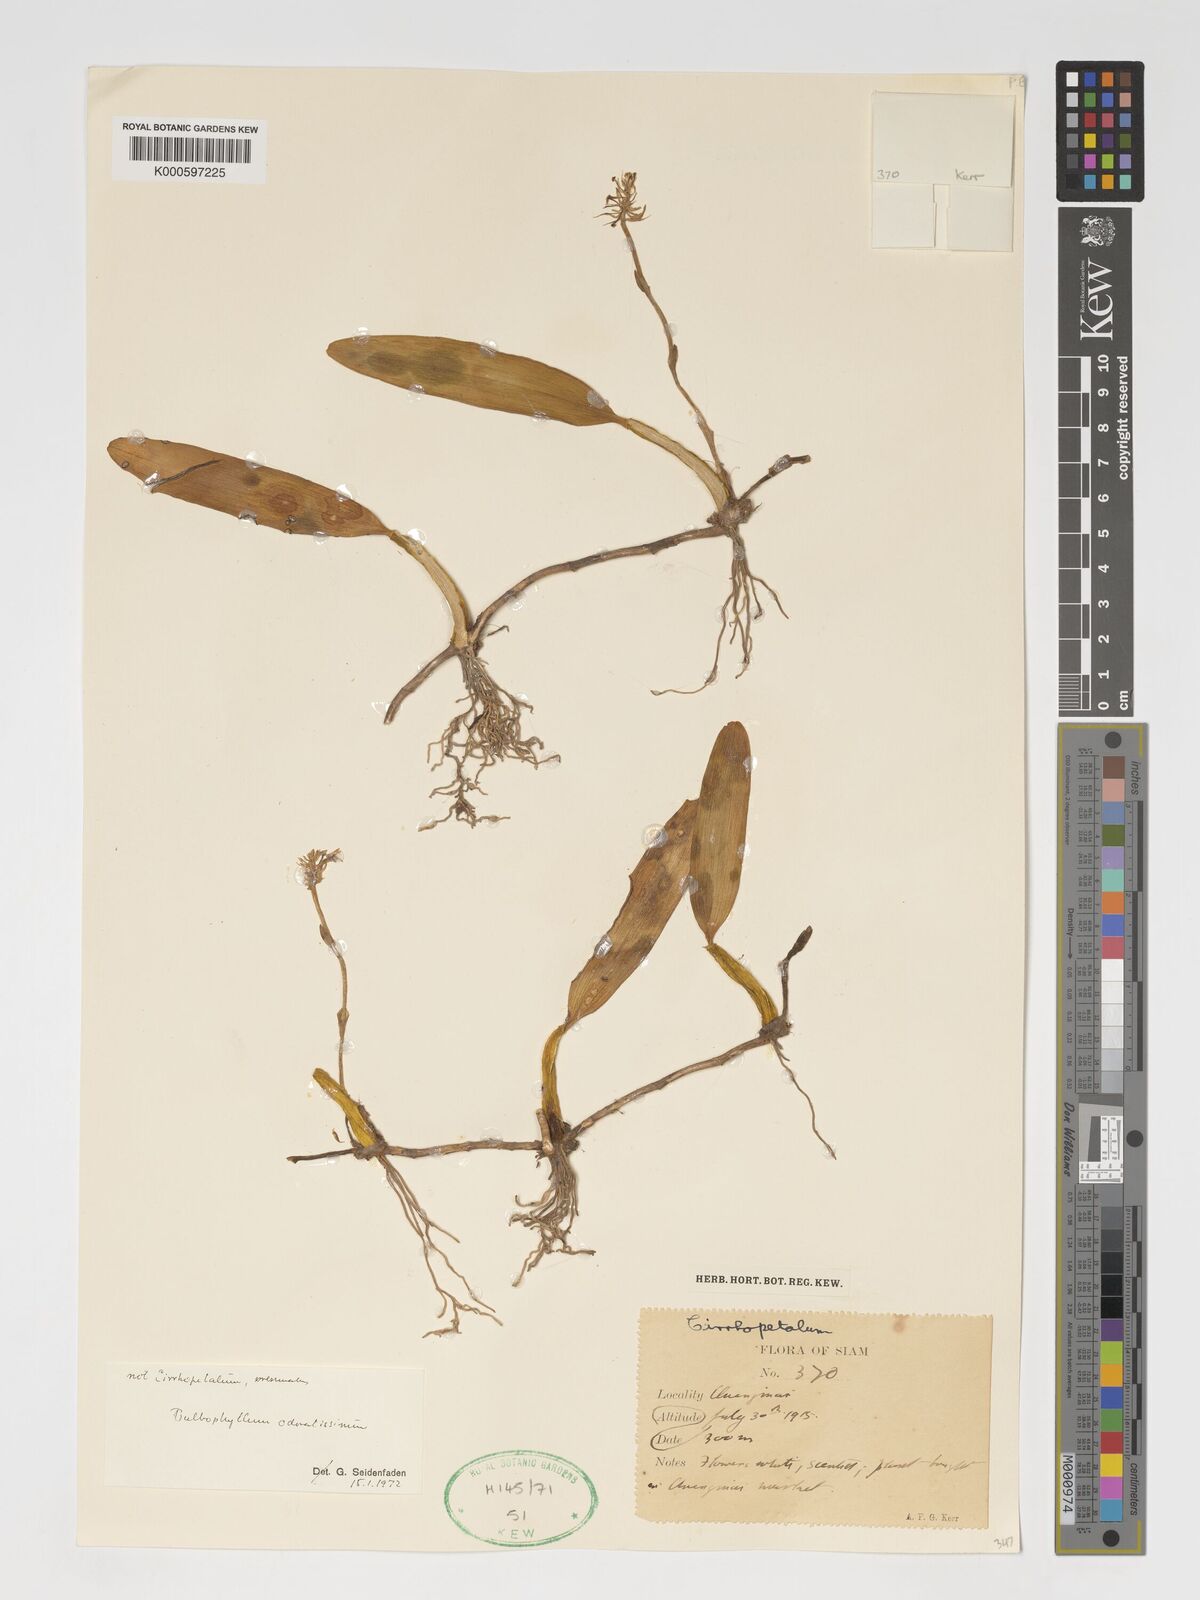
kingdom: Plantae
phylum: Tracheophyta
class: Liliopsida
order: Asparagales
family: Orchidaceae
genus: Bulbophyllum
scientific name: Bulbophyllum
